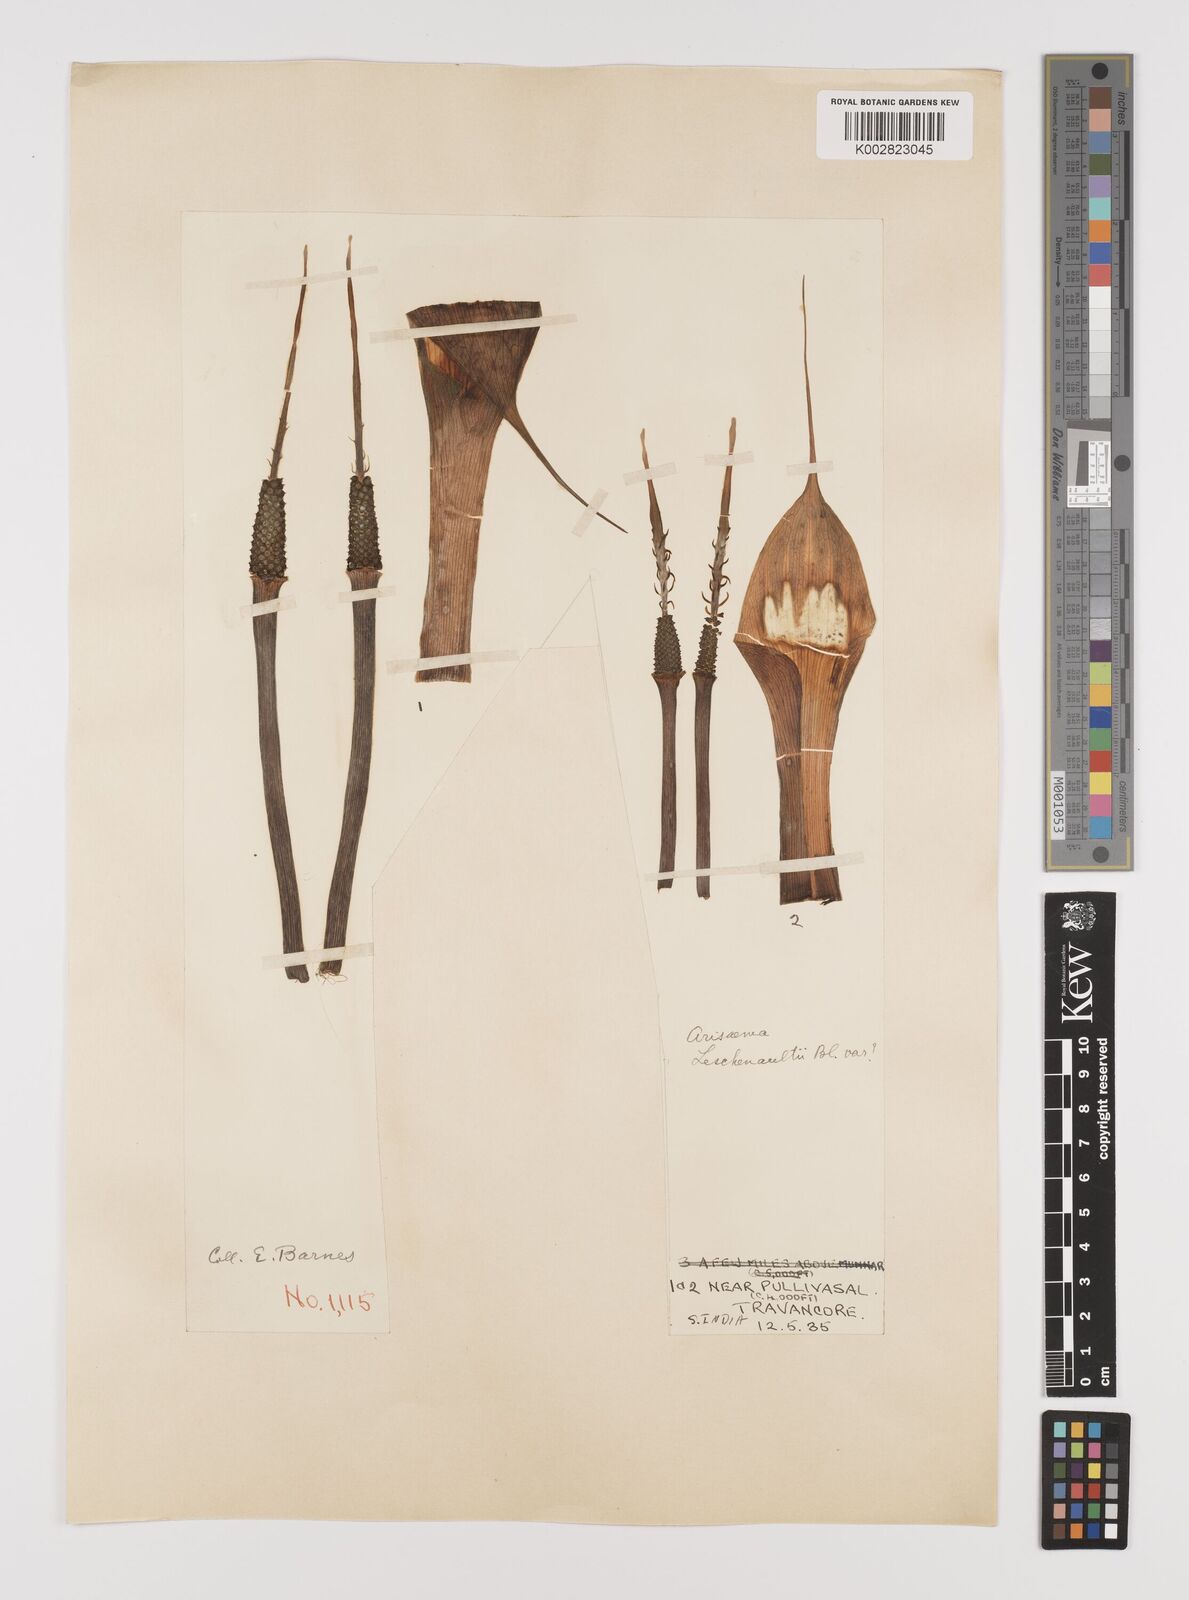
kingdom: Plantae
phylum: Tracheophyta
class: Liliopsida
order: Alismatales
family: Araceae
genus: Arisaema
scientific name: Arisaema leschenaultii
